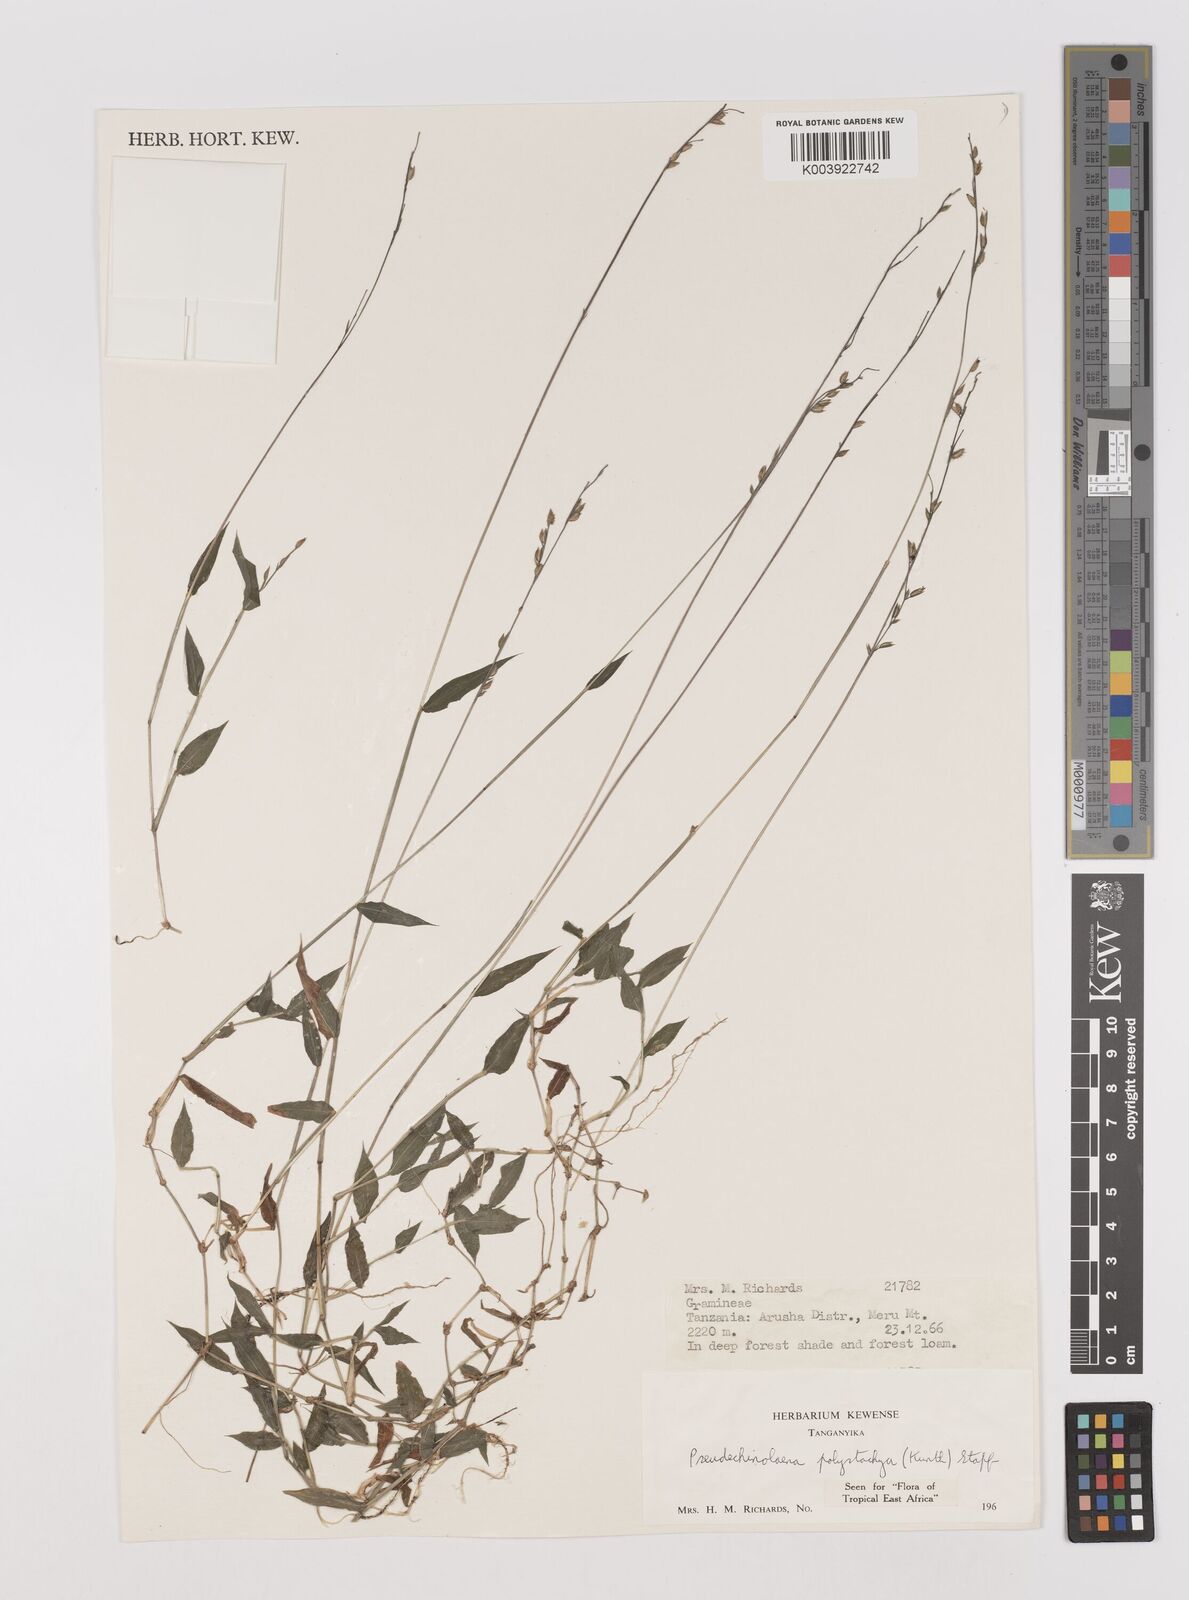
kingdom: Plantae
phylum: Tracheophyta
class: Liliopsida
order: Poales
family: Poaceae
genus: Pseudechinolaena
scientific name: Pseudechinolaena polystachya
